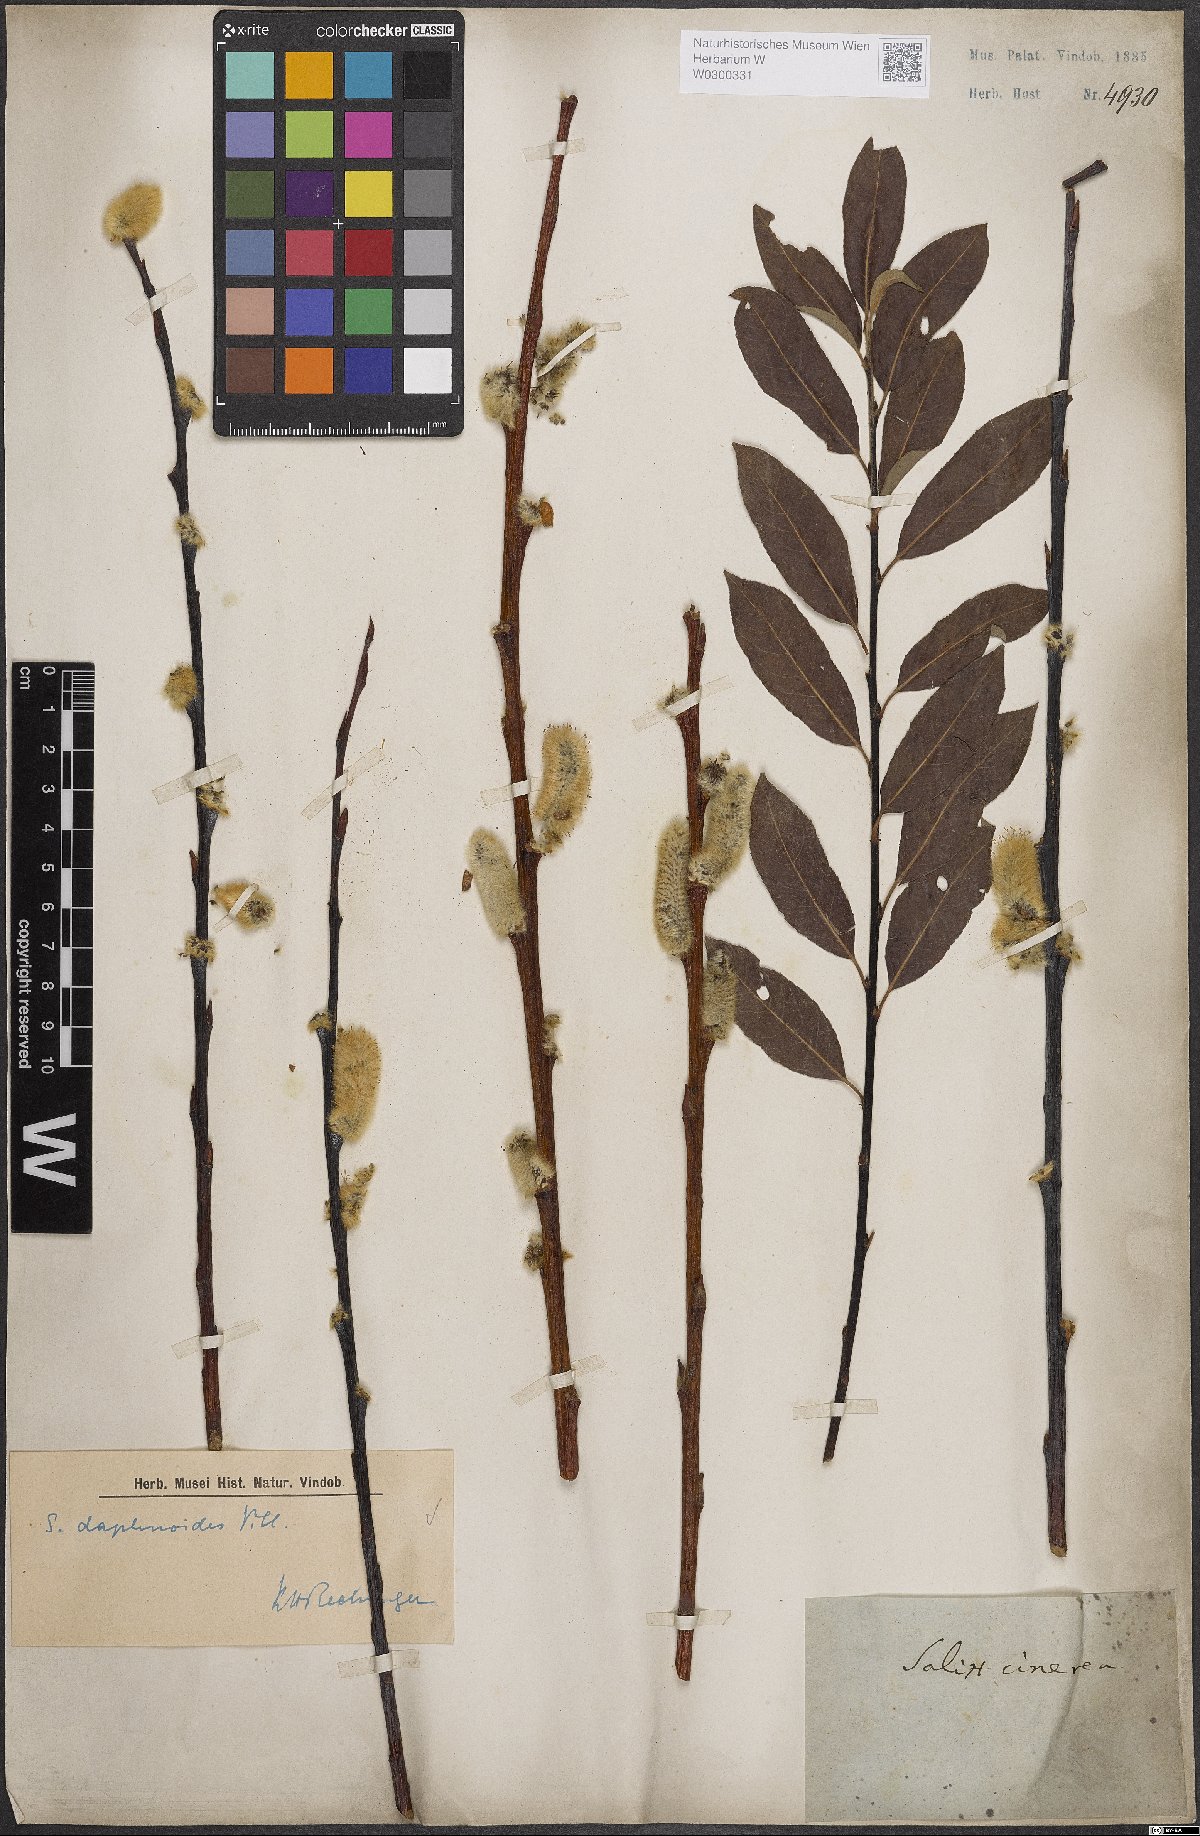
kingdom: Plantae
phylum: Tracheophyta
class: Magnoliopsida
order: Malpighiales
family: Salicaceae
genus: Salix
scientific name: Salix daphnoides
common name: European violet-willow
